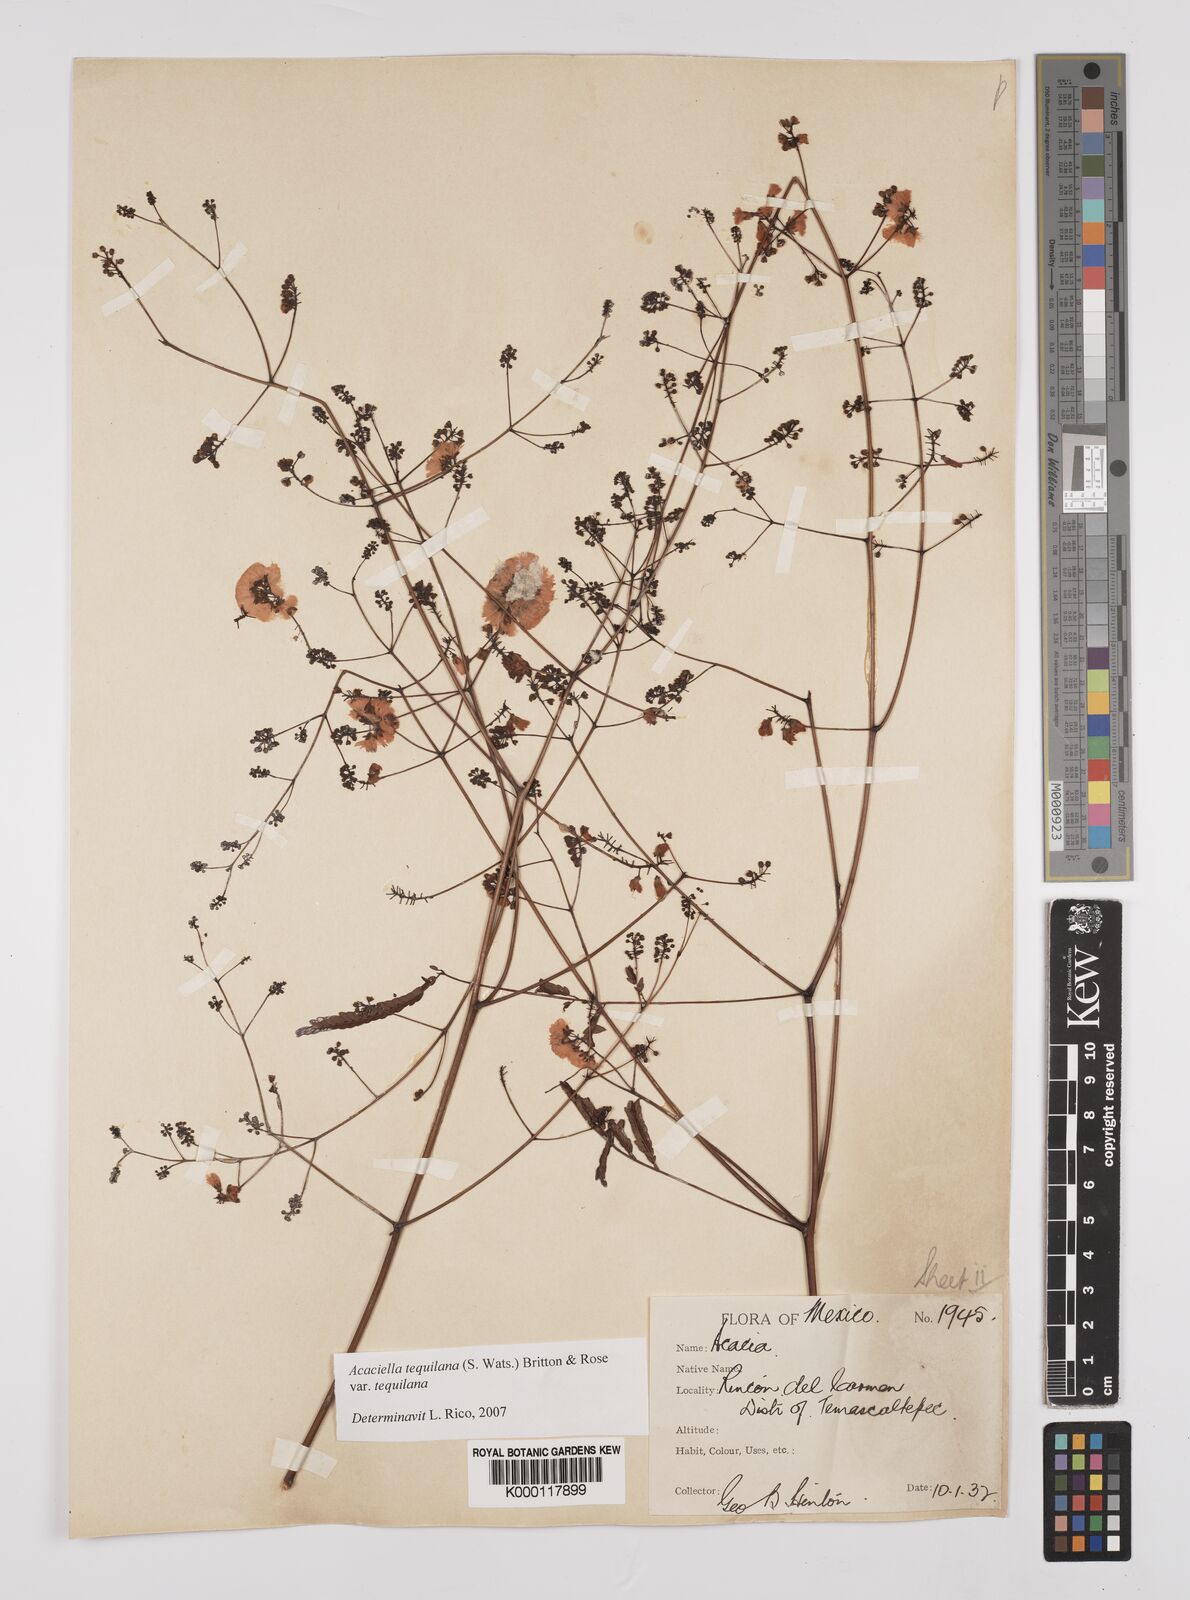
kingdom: Plantae
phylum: Tracheophyta
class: Magnoliopsida
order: Fabales
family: Fabaceae
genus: Acaciella
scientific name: Acaciella tequilana
